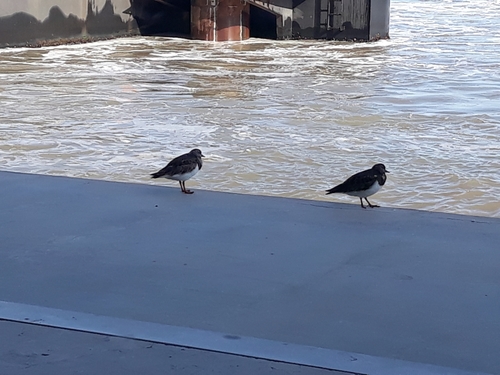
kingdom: Animalia
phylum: Chordata
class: Aves
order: Charadriiformes
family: Scolopacidae
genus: Arenaria
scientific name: Arenaria interpres
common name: Ruddy turnstone
